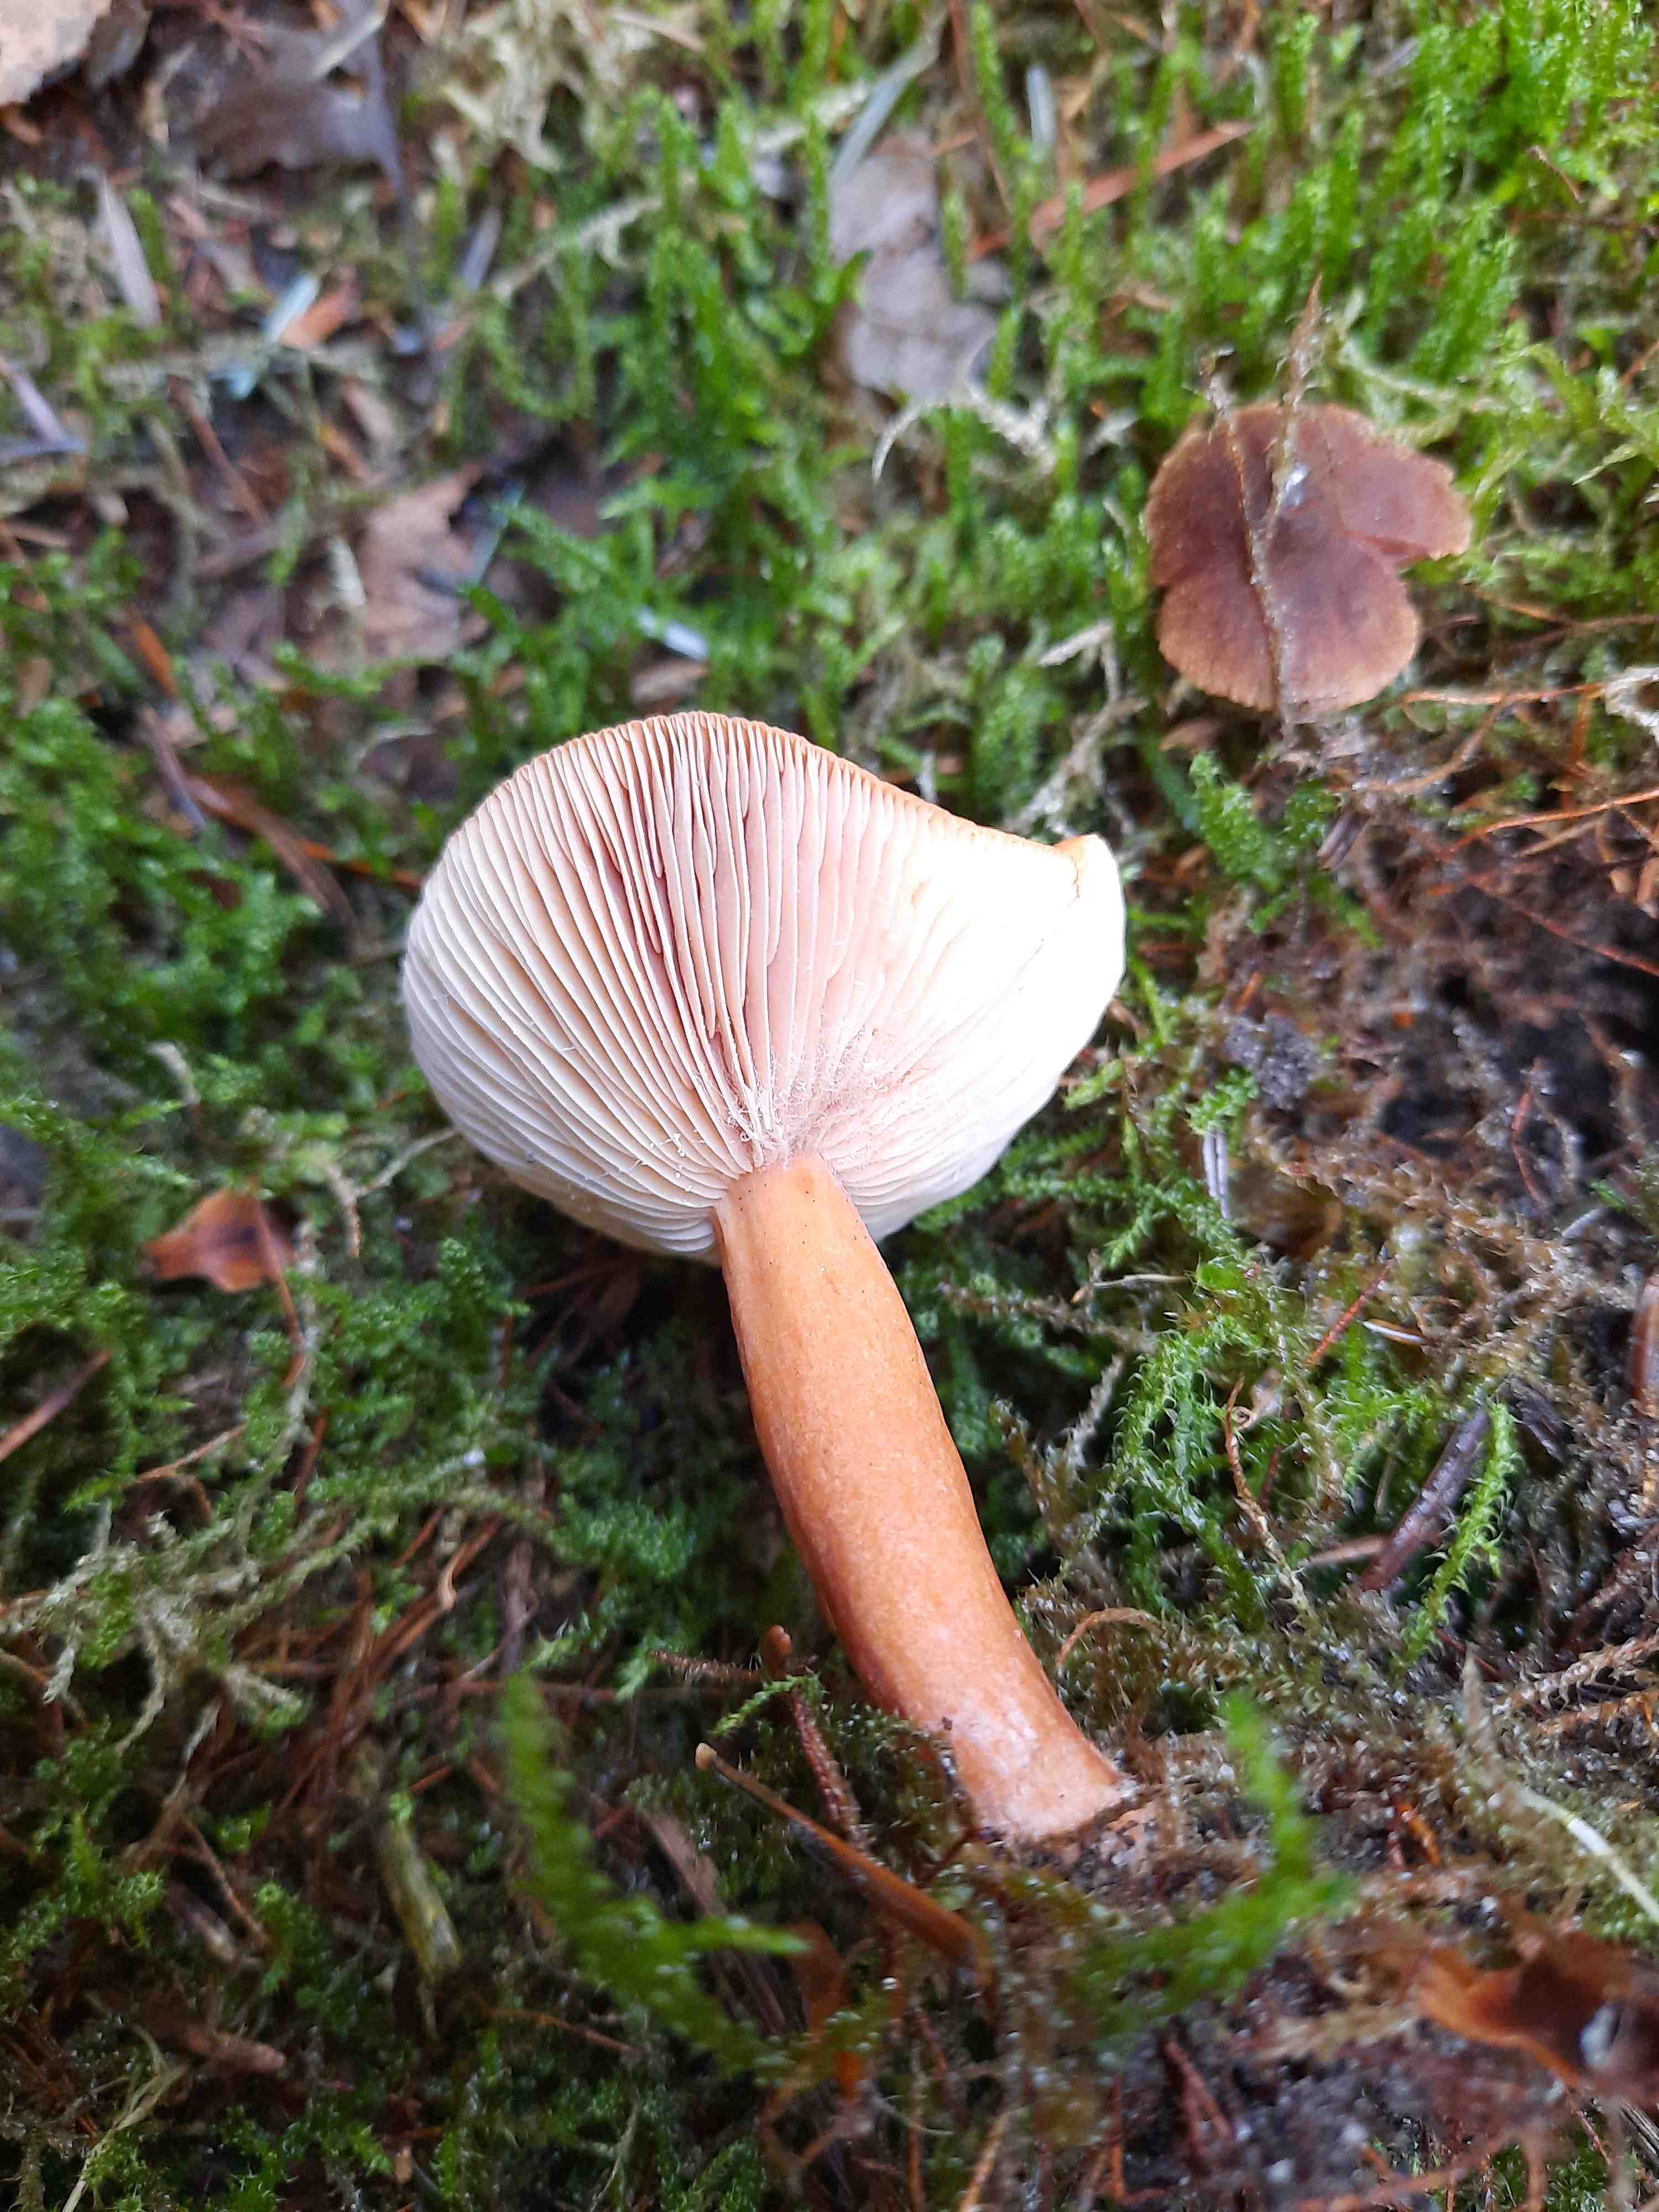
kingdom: Fungi
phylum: Basidiomycota
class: Agaricomycetes
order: Russulales
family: Russulaceae
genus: Lactarius
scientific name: Lactarius aurantiacus
